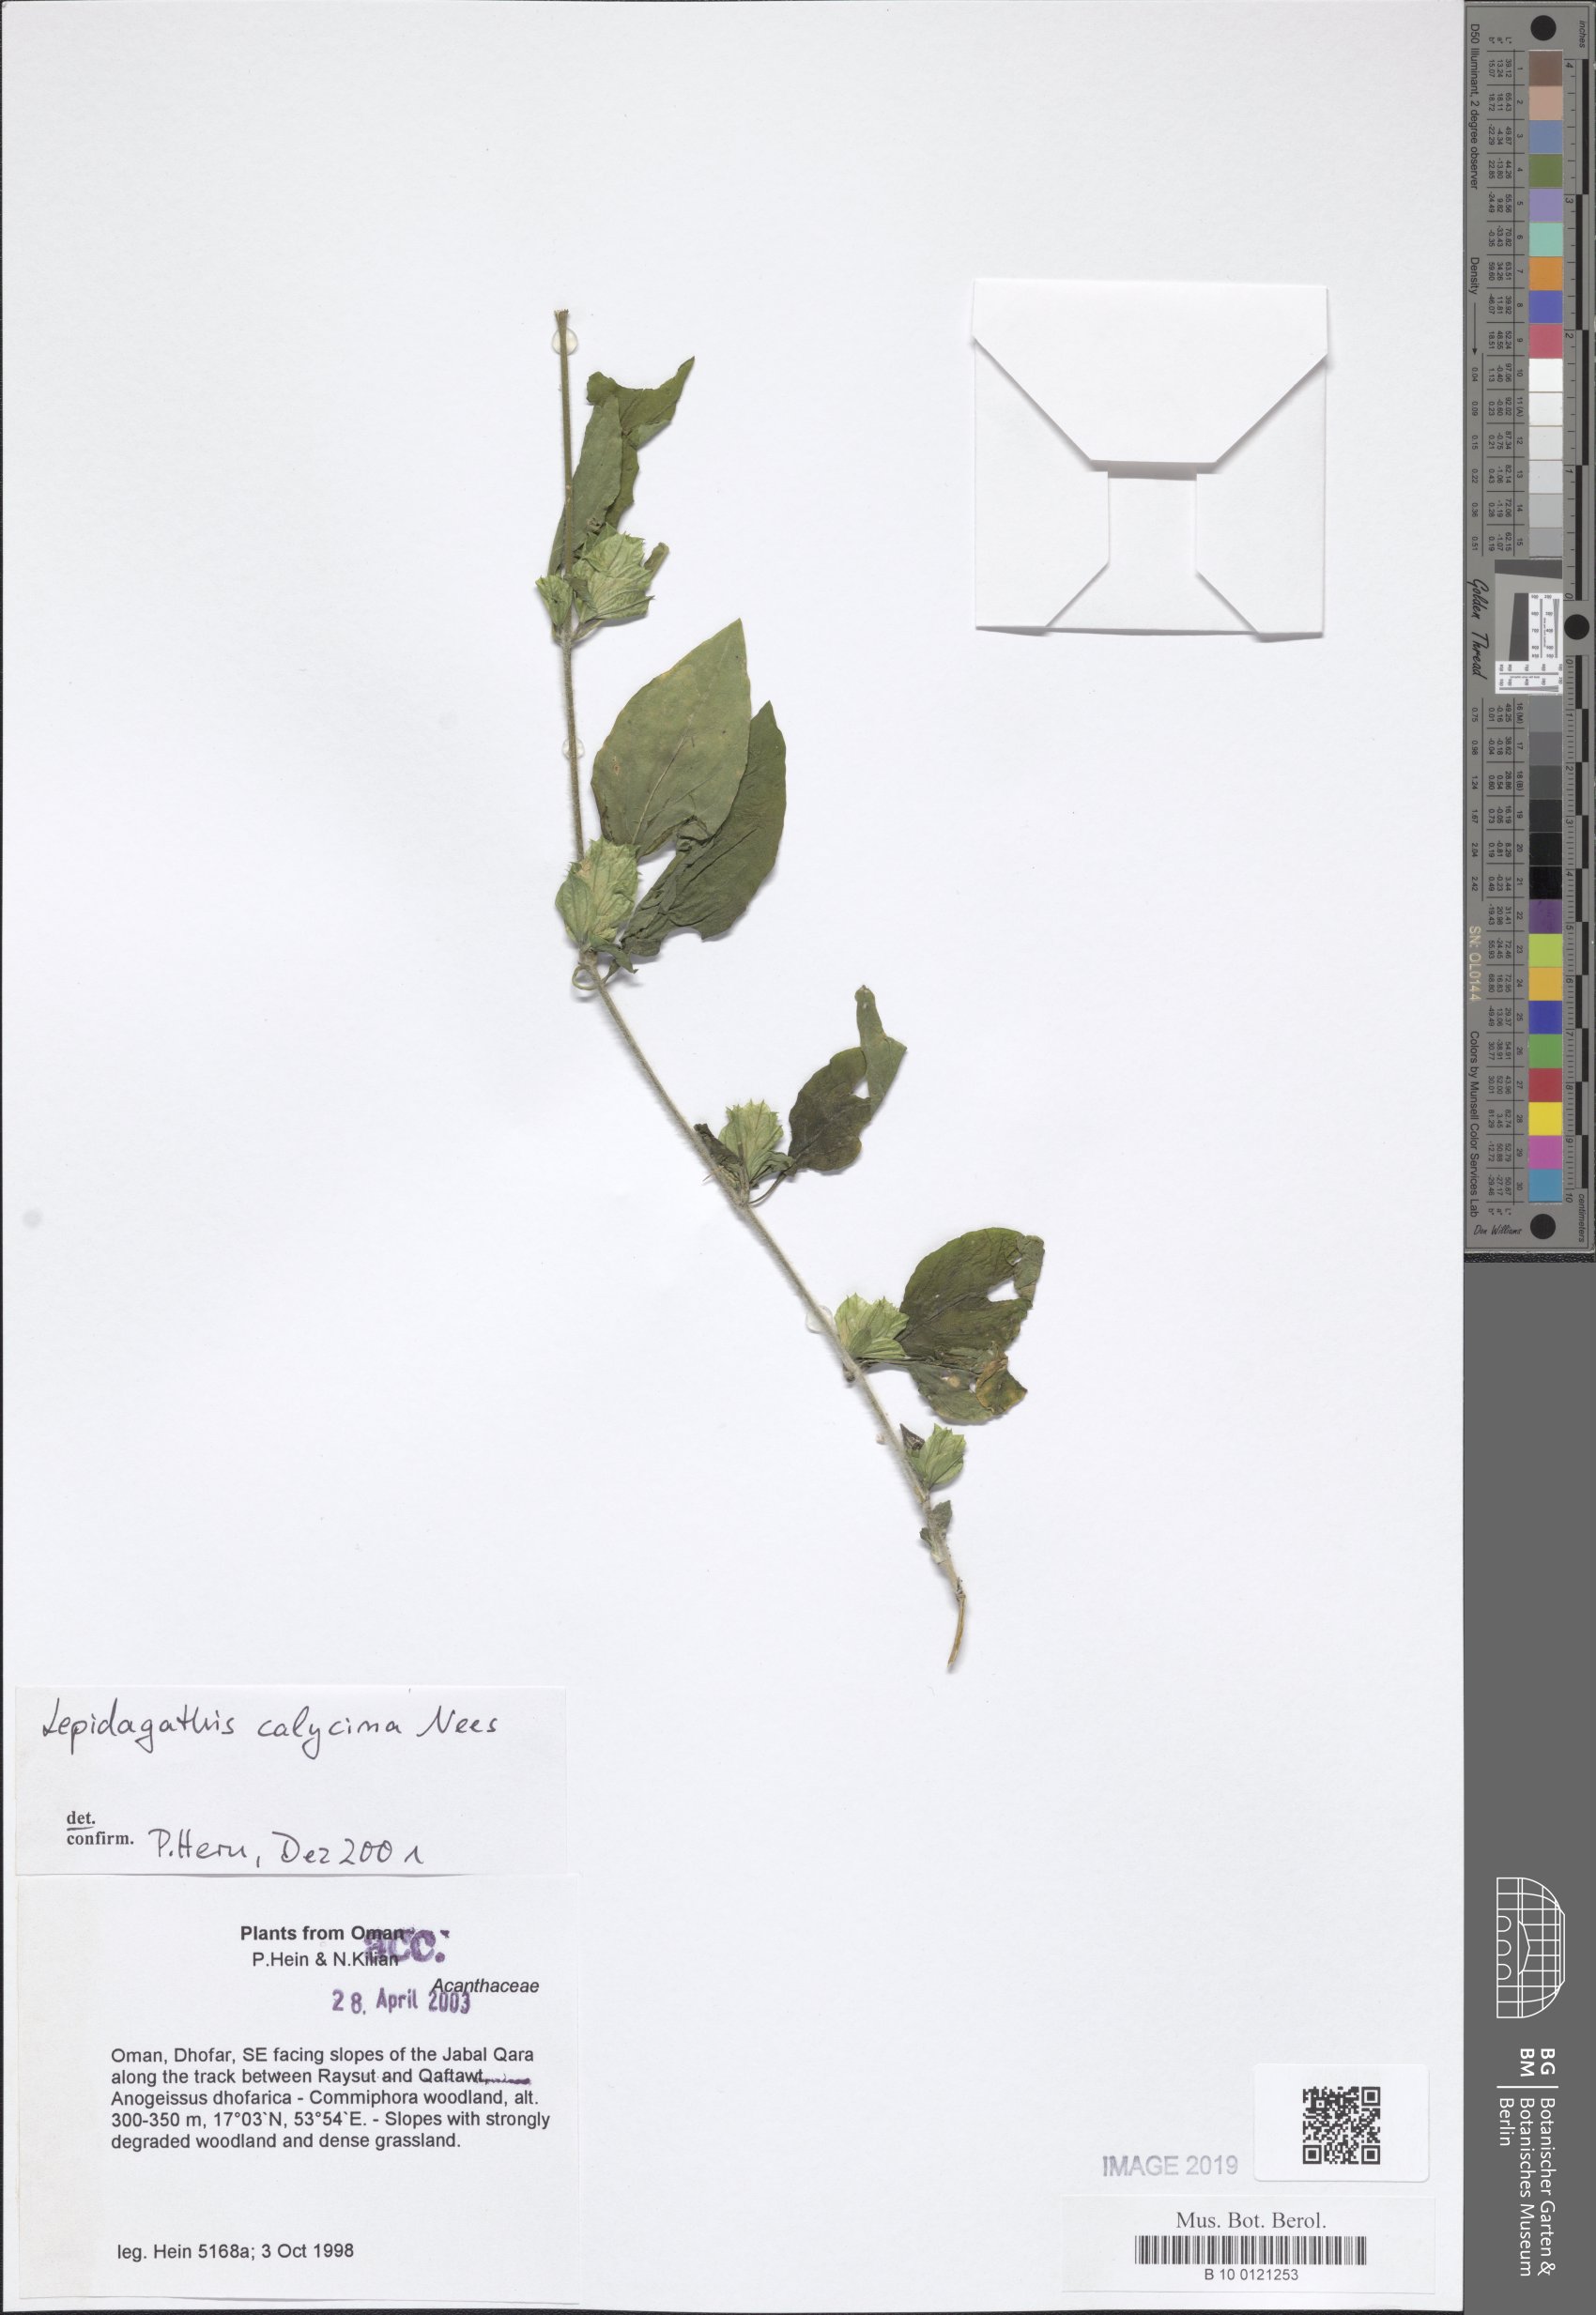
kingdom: Plantae
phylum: Tracheophyta
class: Magnoliopsida
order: Lamiales
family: Acanthaceae
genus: Lepidagathis
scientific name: Lepidagathis calycina
